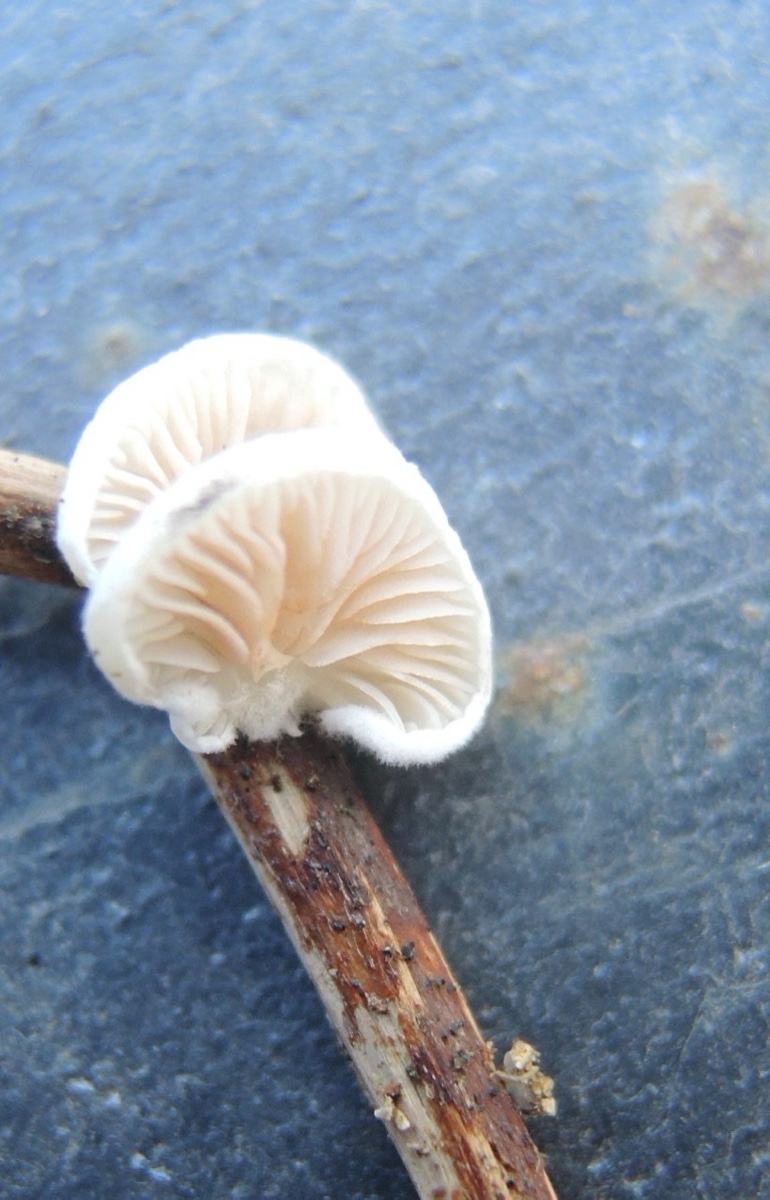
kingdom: Fungi
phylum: Basidiomycota
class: Agaricomycetes
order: Agaricales
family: Crepidotaceae
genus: Crepidotus
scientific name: Crepidotus variabilis
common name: forskelligformet muslingesvamp
